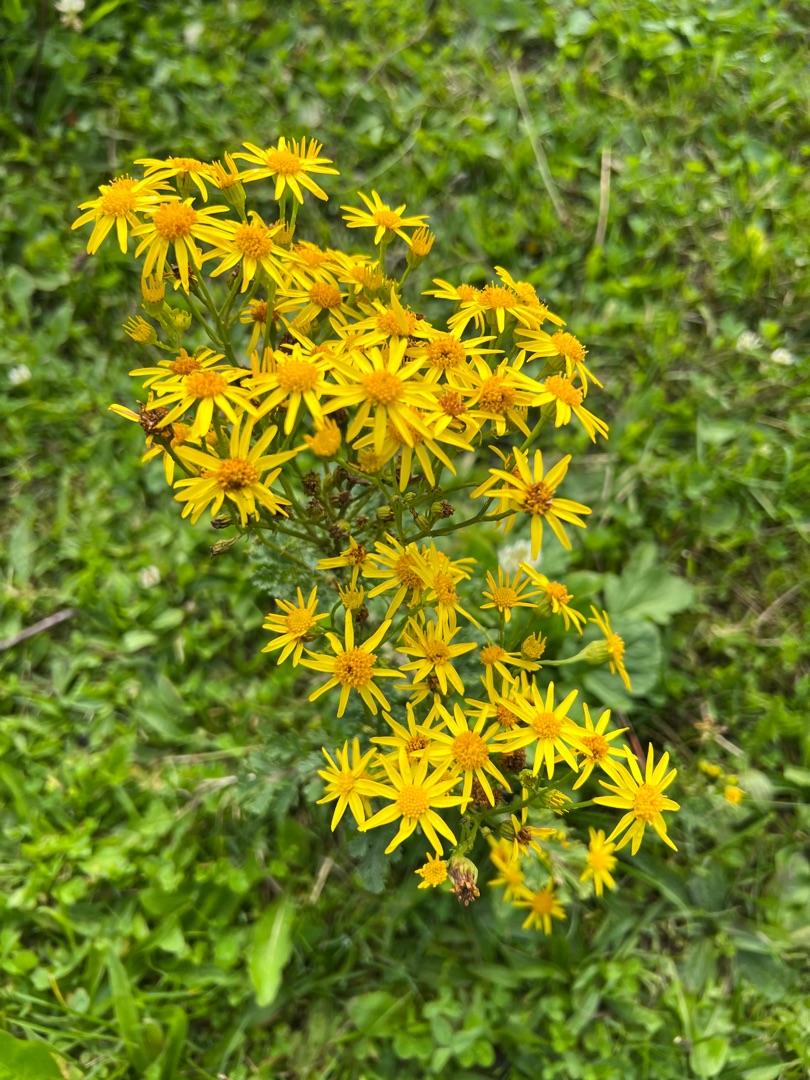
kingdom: Plantae
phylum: Tracheophyta
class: Magnoliopsida
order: Asterales
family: Asteraceae
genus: Jacobaea
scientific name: Jacobaea vulgaris
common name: Eng-brandbæger
